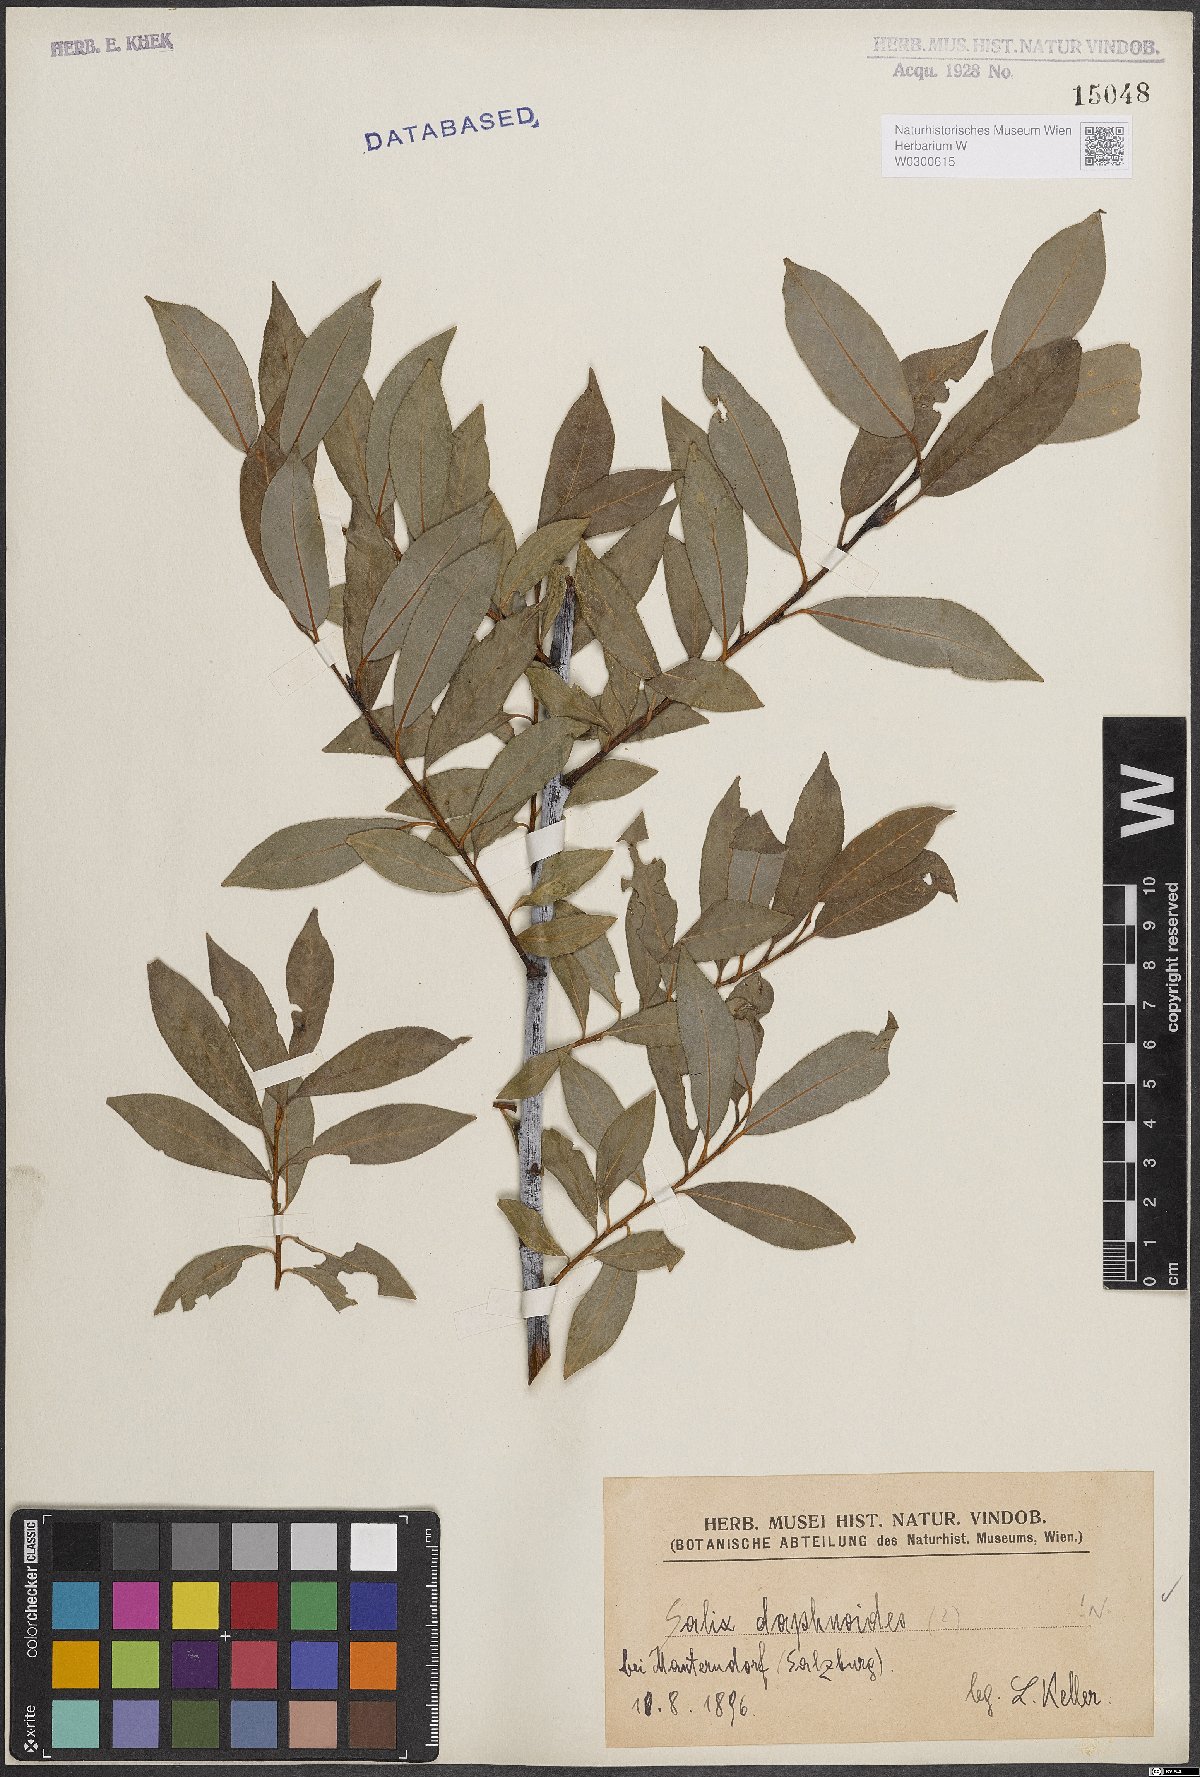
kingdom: Plantae
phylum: Tracheophyta
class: Magnoliopsida
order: Malpighiales
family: Salicaceae
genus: Salix
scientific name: Salix daphnoides
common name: European violet-willow
